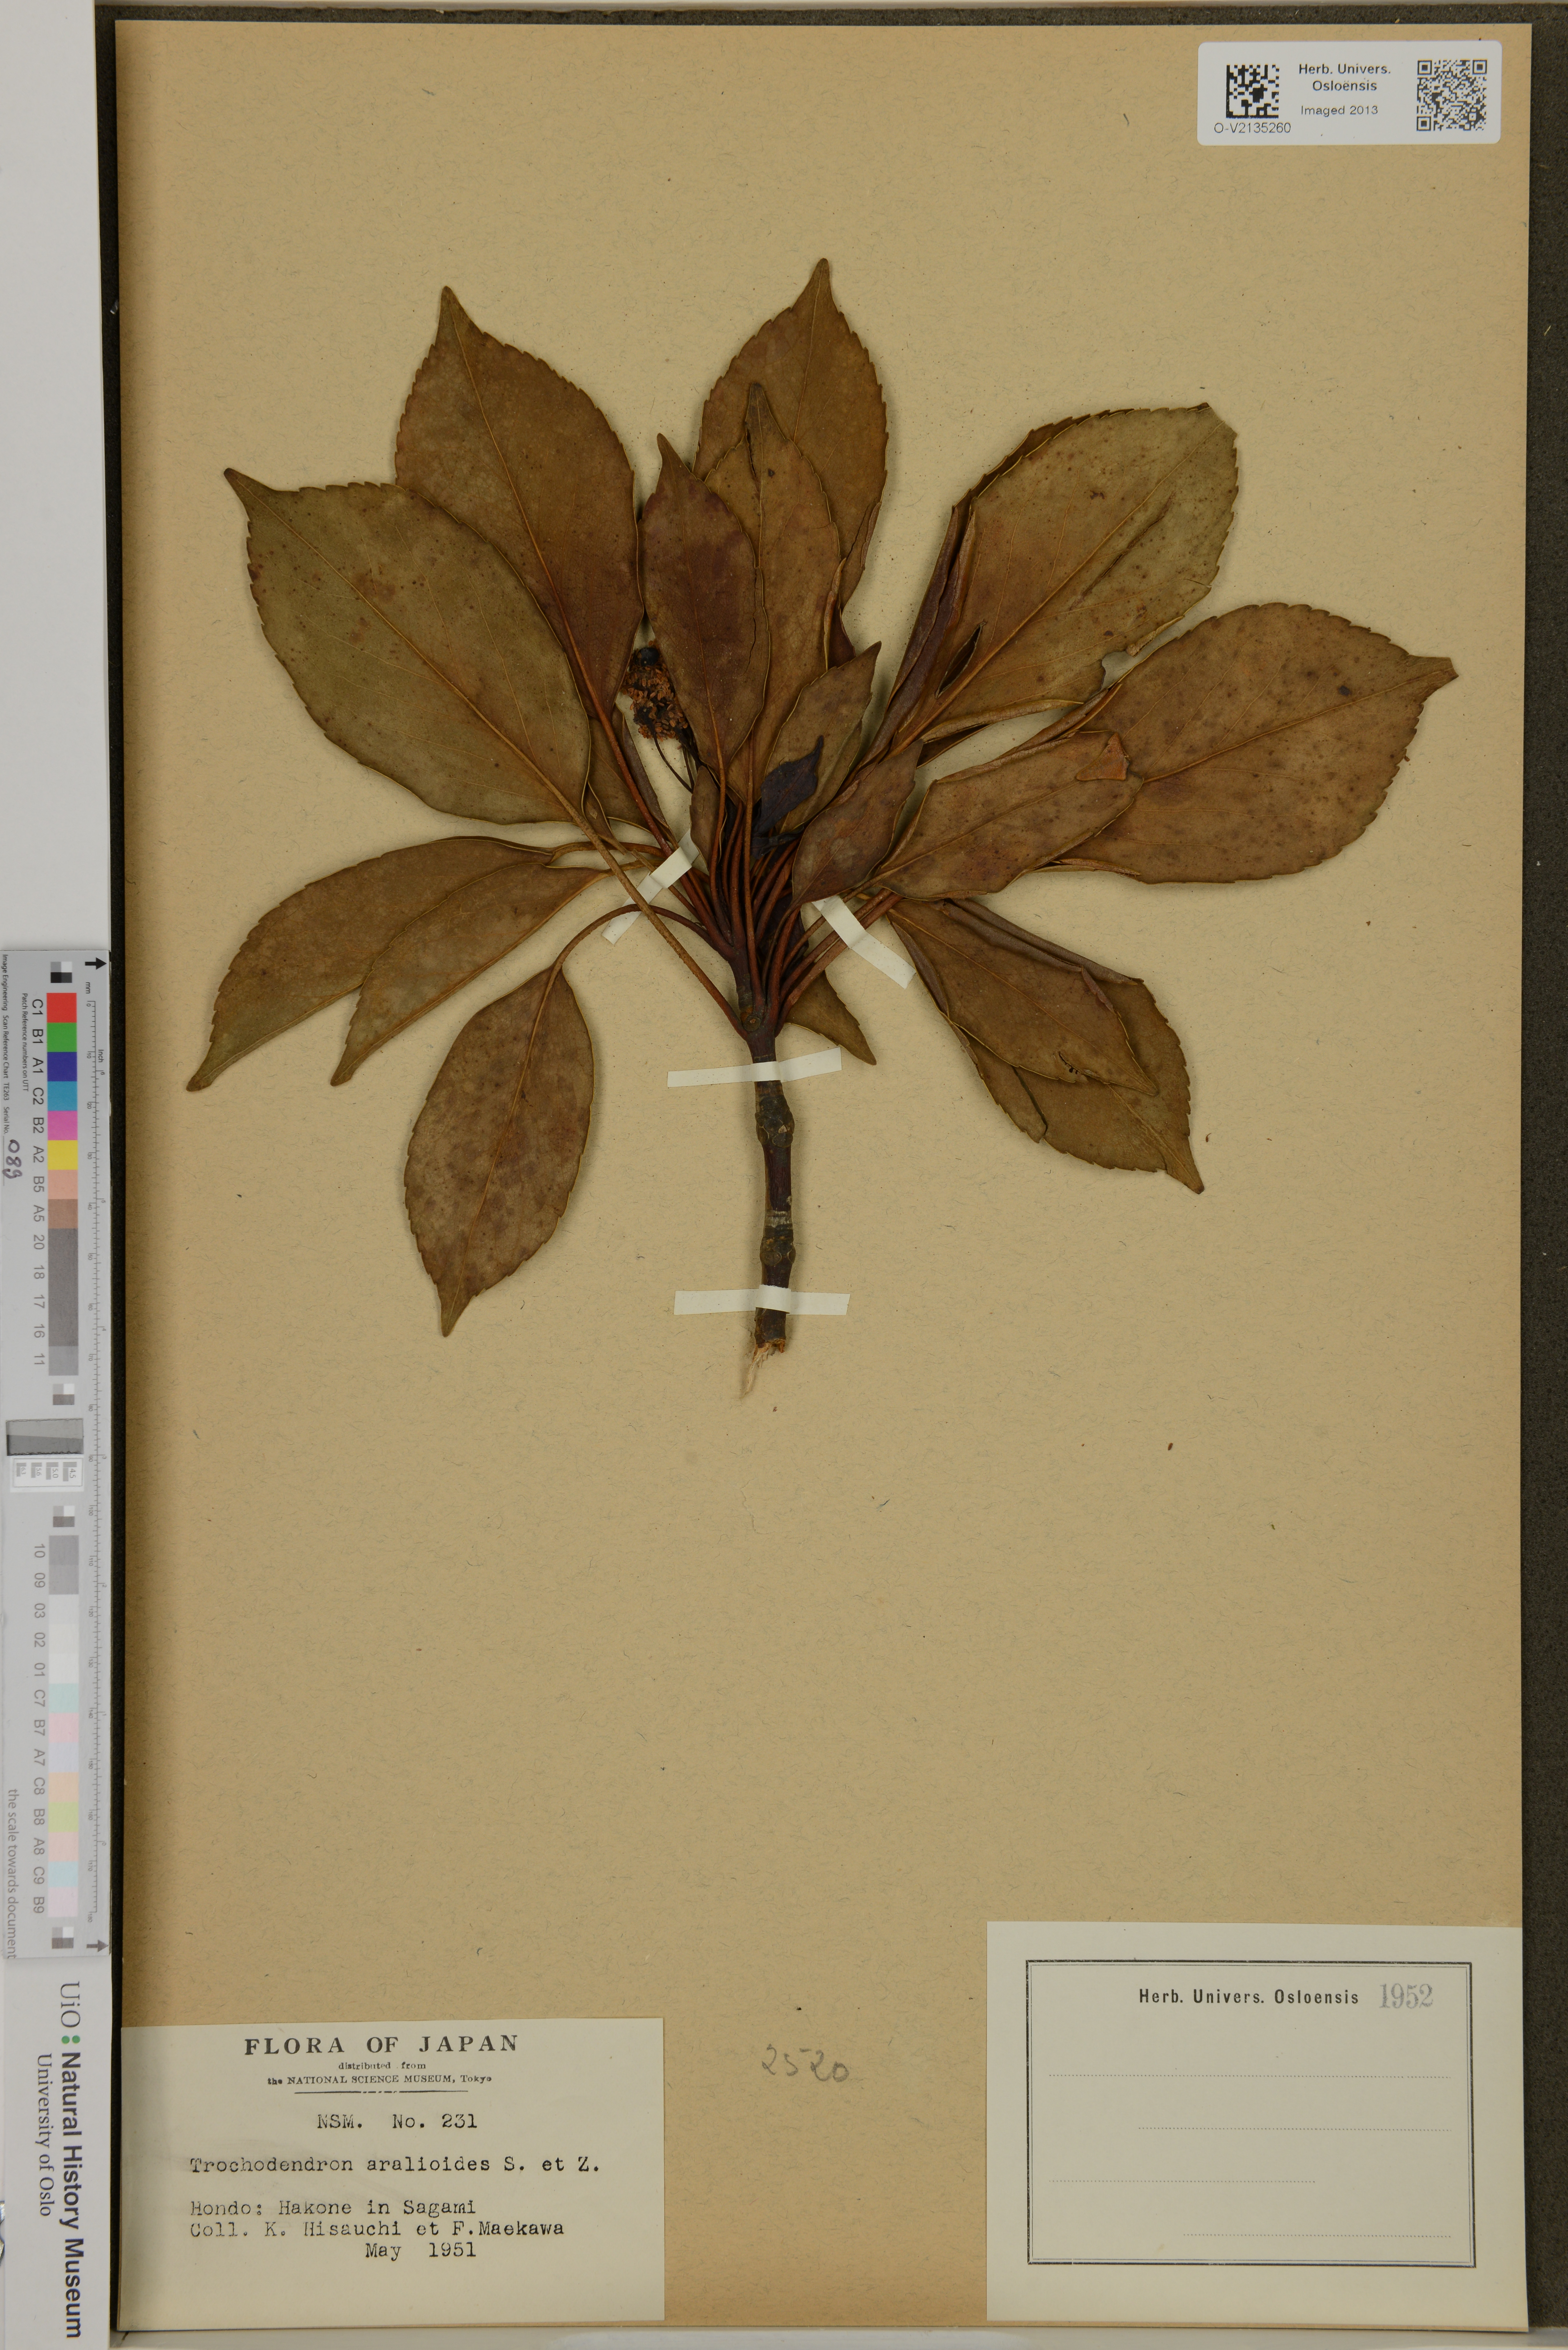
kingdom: Plantae
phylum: Tracheophyta
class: Magnoliopsida
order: Trochodendrales
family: Trochodendraceae
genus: Trochodendron
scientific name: Trochodendron aralioides
